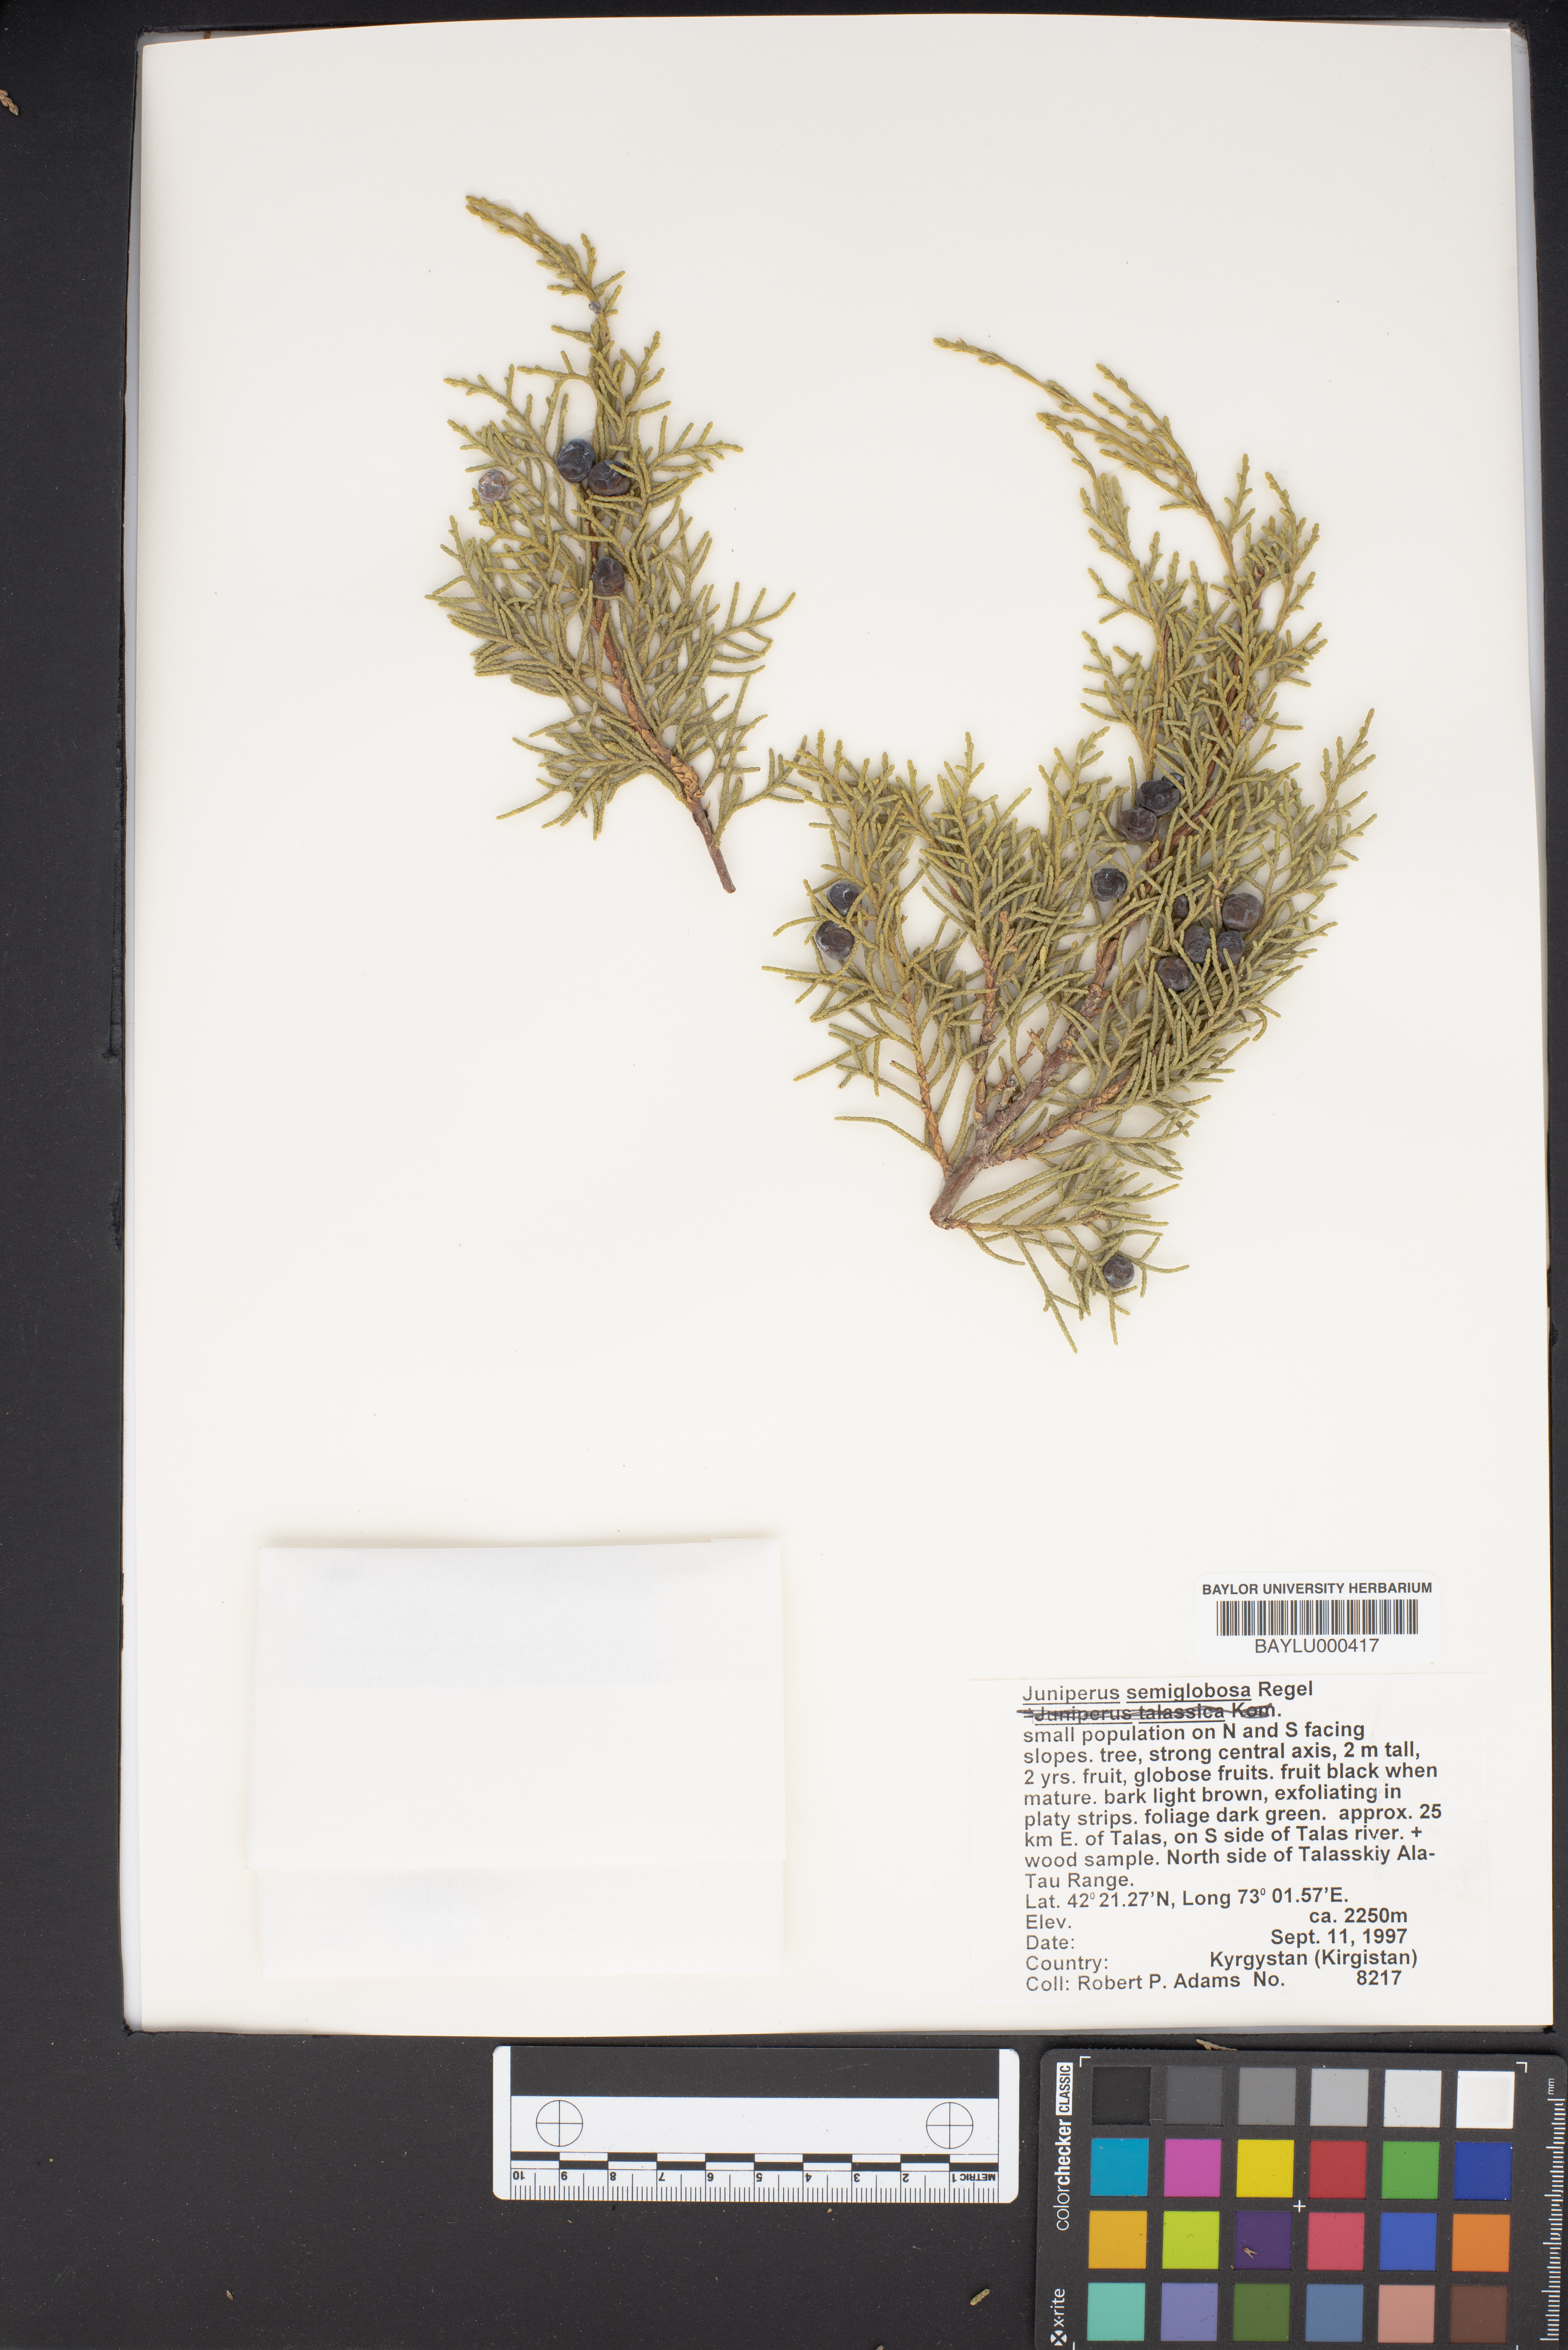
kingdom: Plantae
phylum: Tracheophyta
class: Pinopsida
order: Pinales
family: Cupressaceae
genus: Juniperus
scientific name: Juniperus semiglobosa
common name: Pencil cedar
